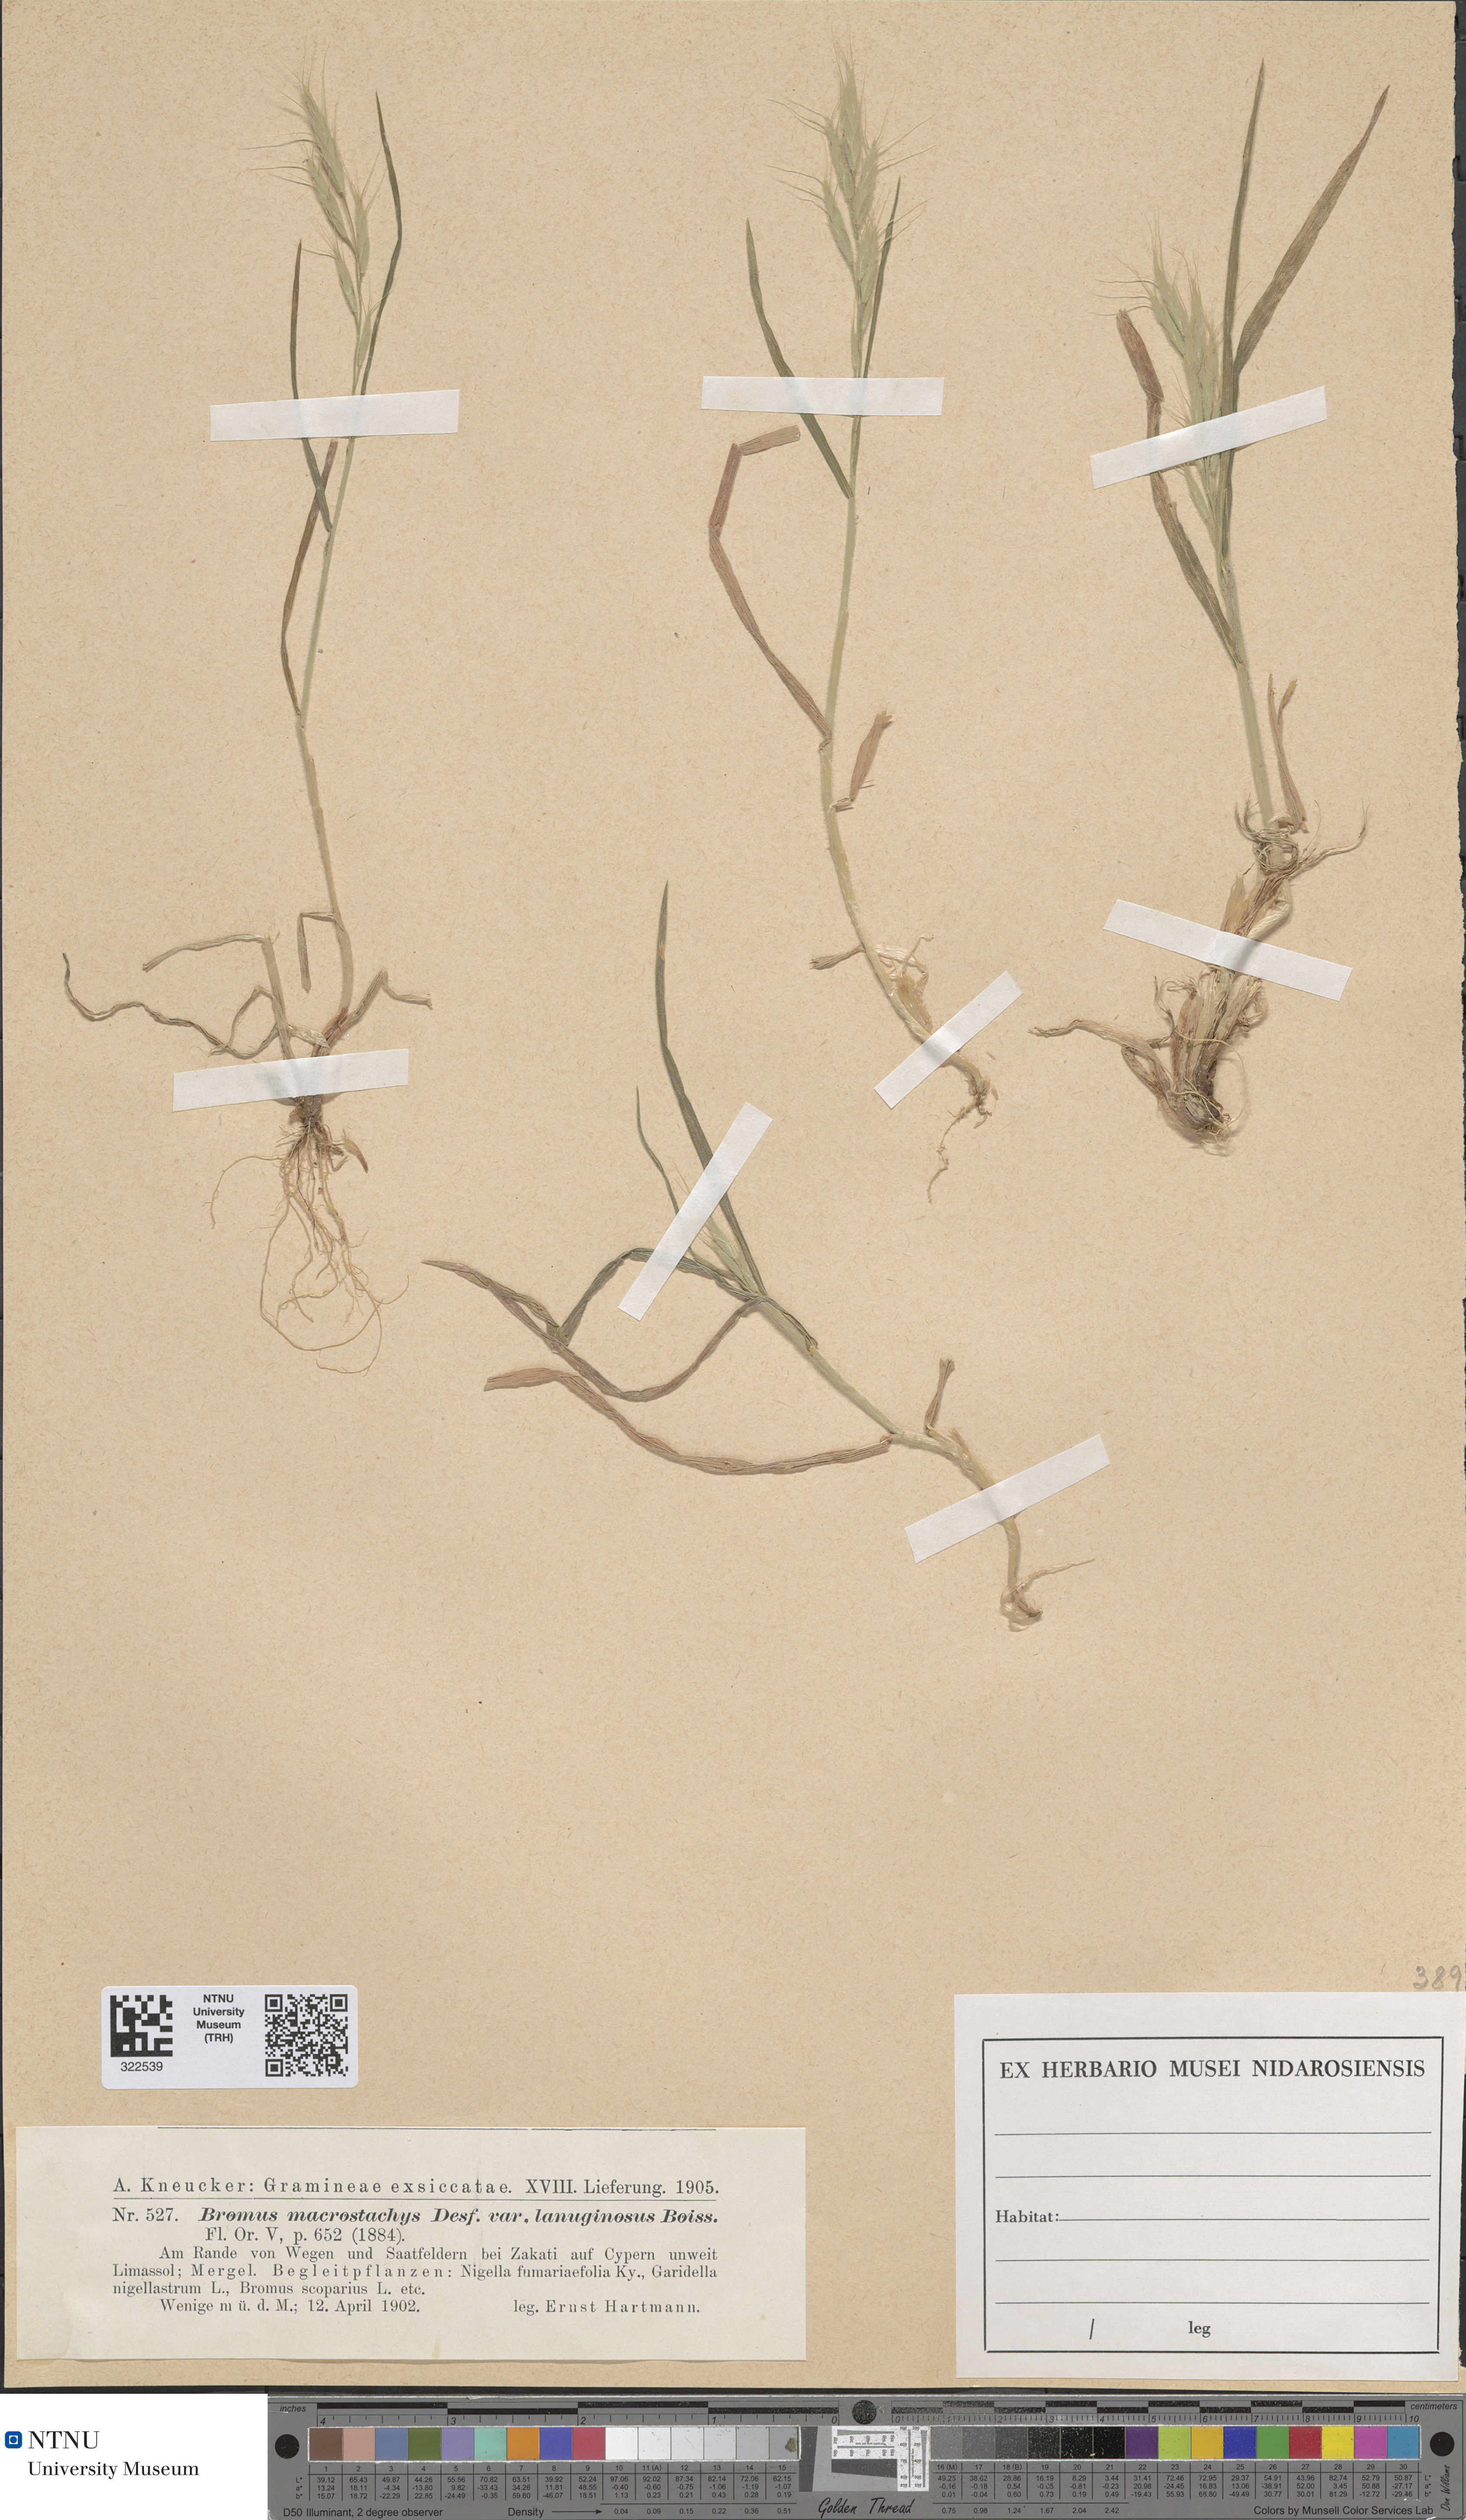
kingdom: Plantae
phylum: Tracheophyta
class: Liliopsida
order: Poales
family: Poaceae
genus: Bromus
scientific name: Bromus lanceolatus
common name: Mediterranean brome
